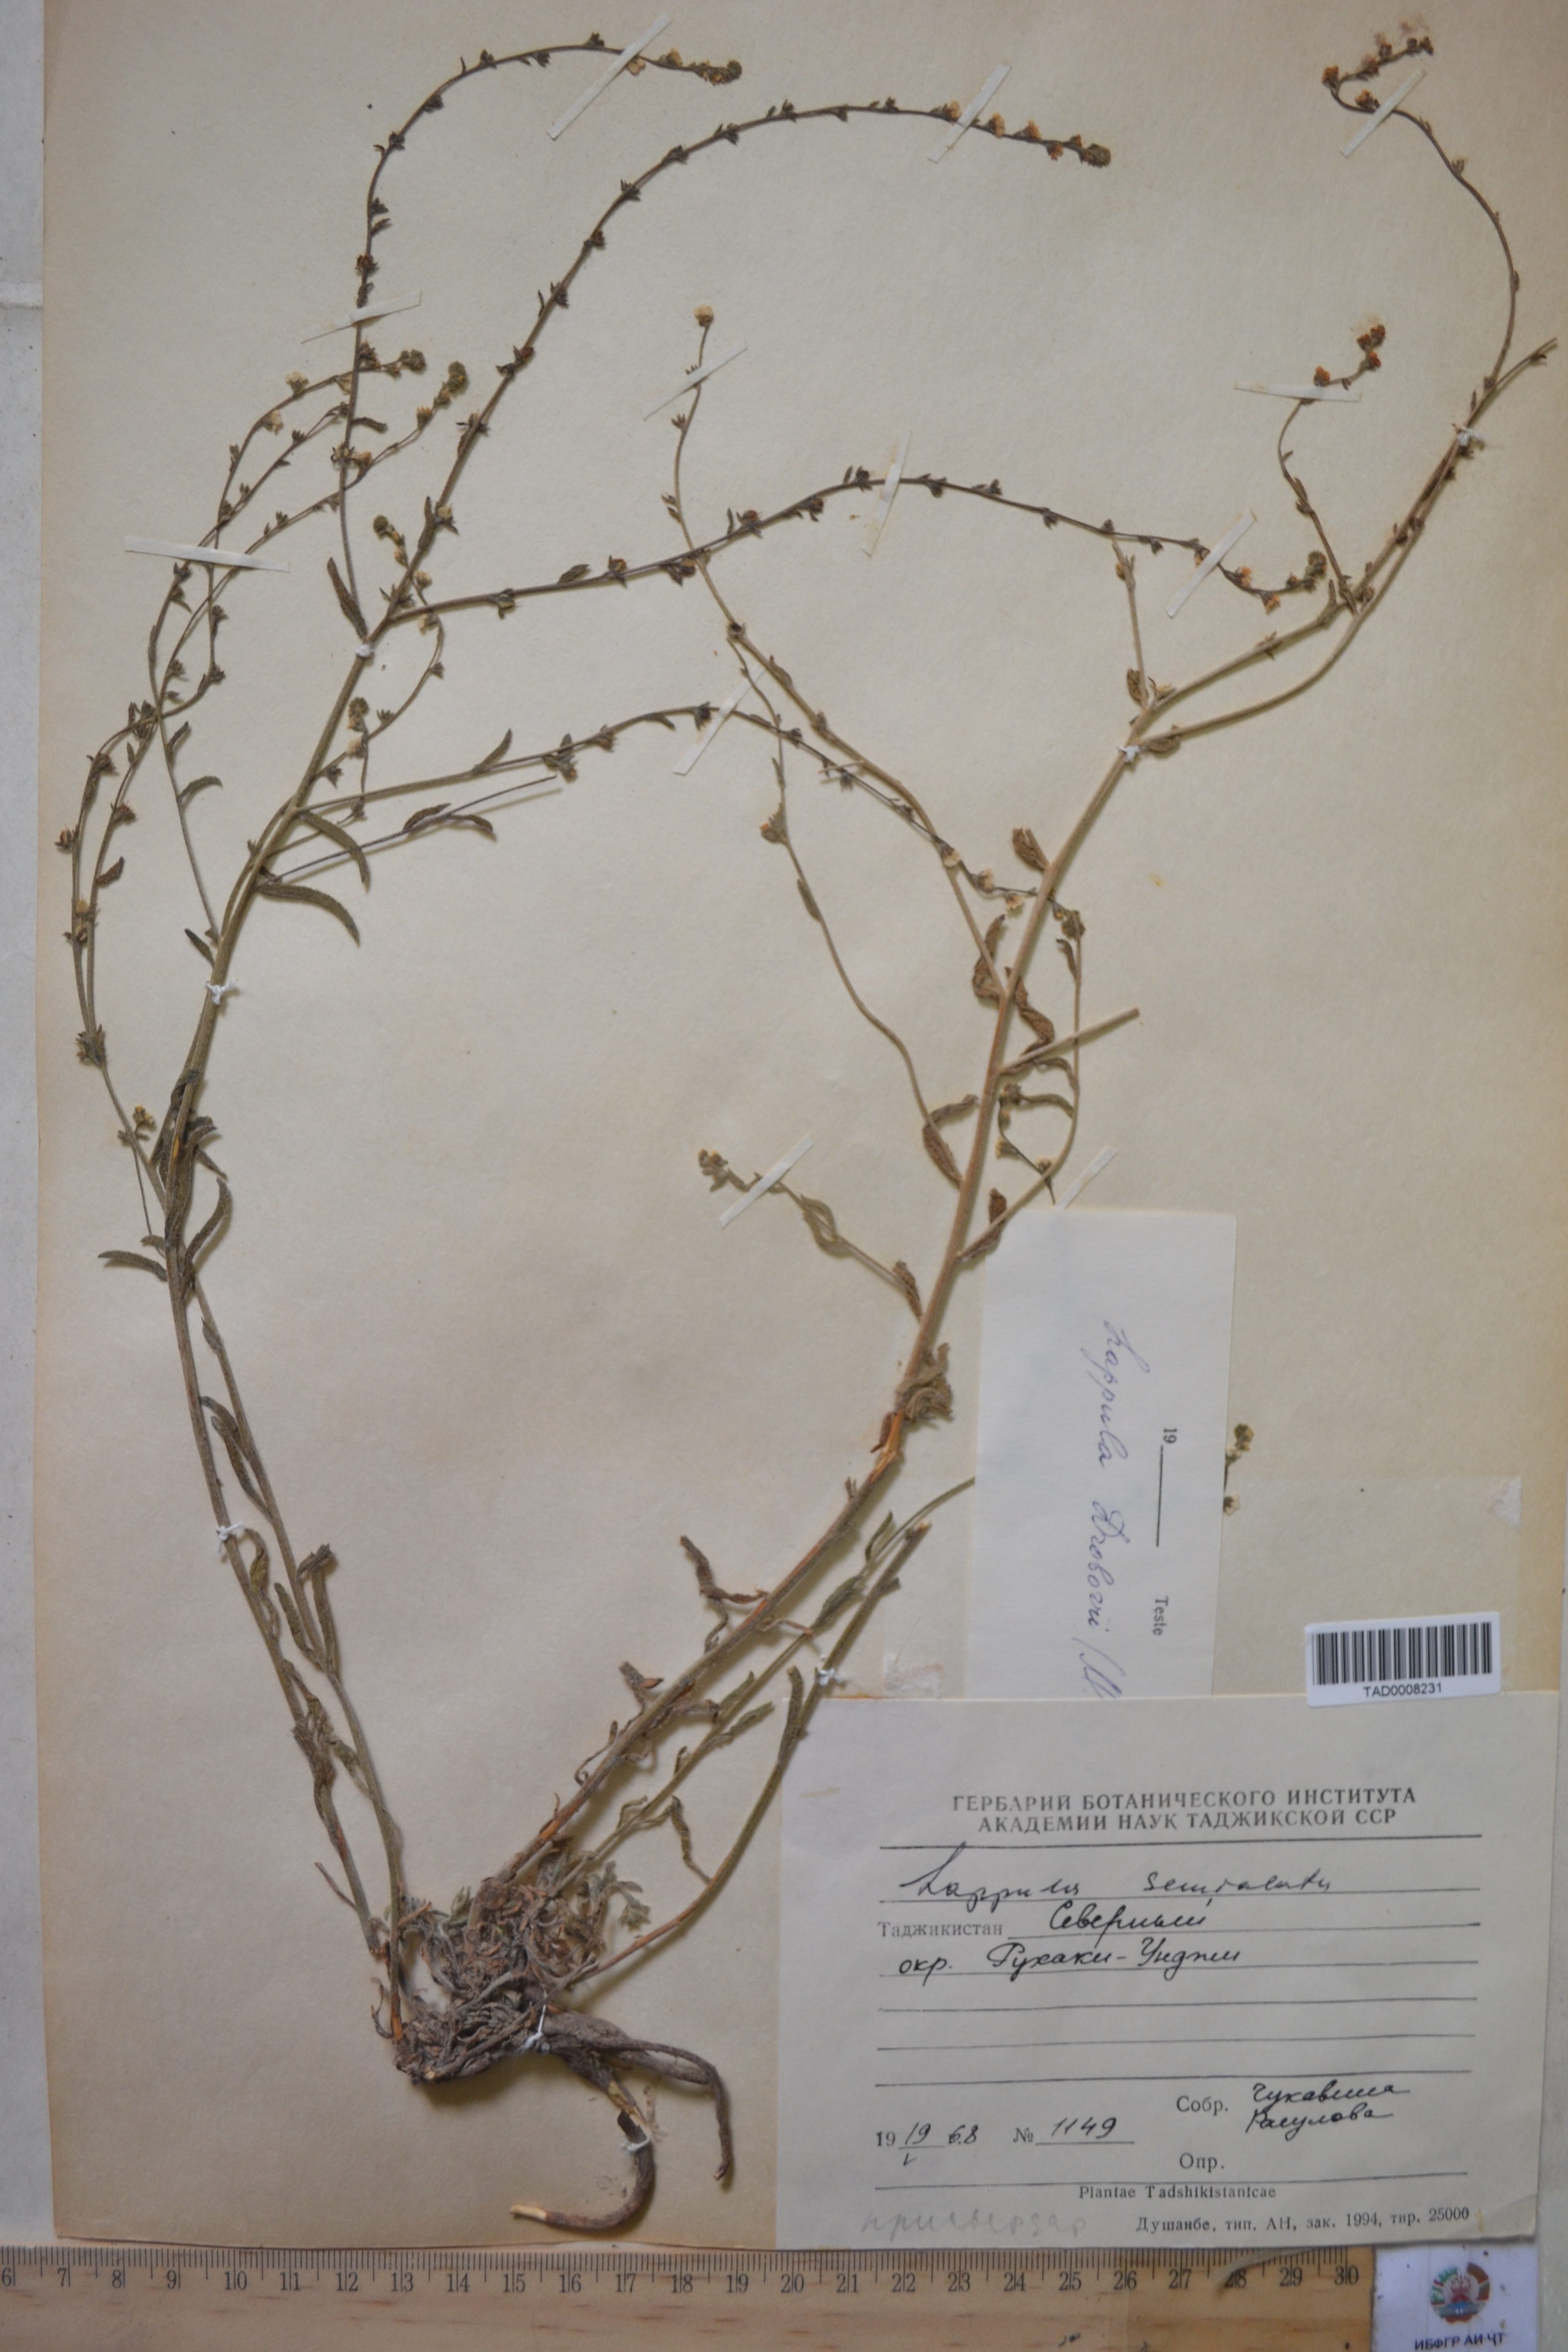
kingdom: Plantae
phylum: Tracheophyta
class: Magnoliopsida
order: Boraginales
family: Boraginaceae
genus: Lappula
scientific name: Lappula semialata
